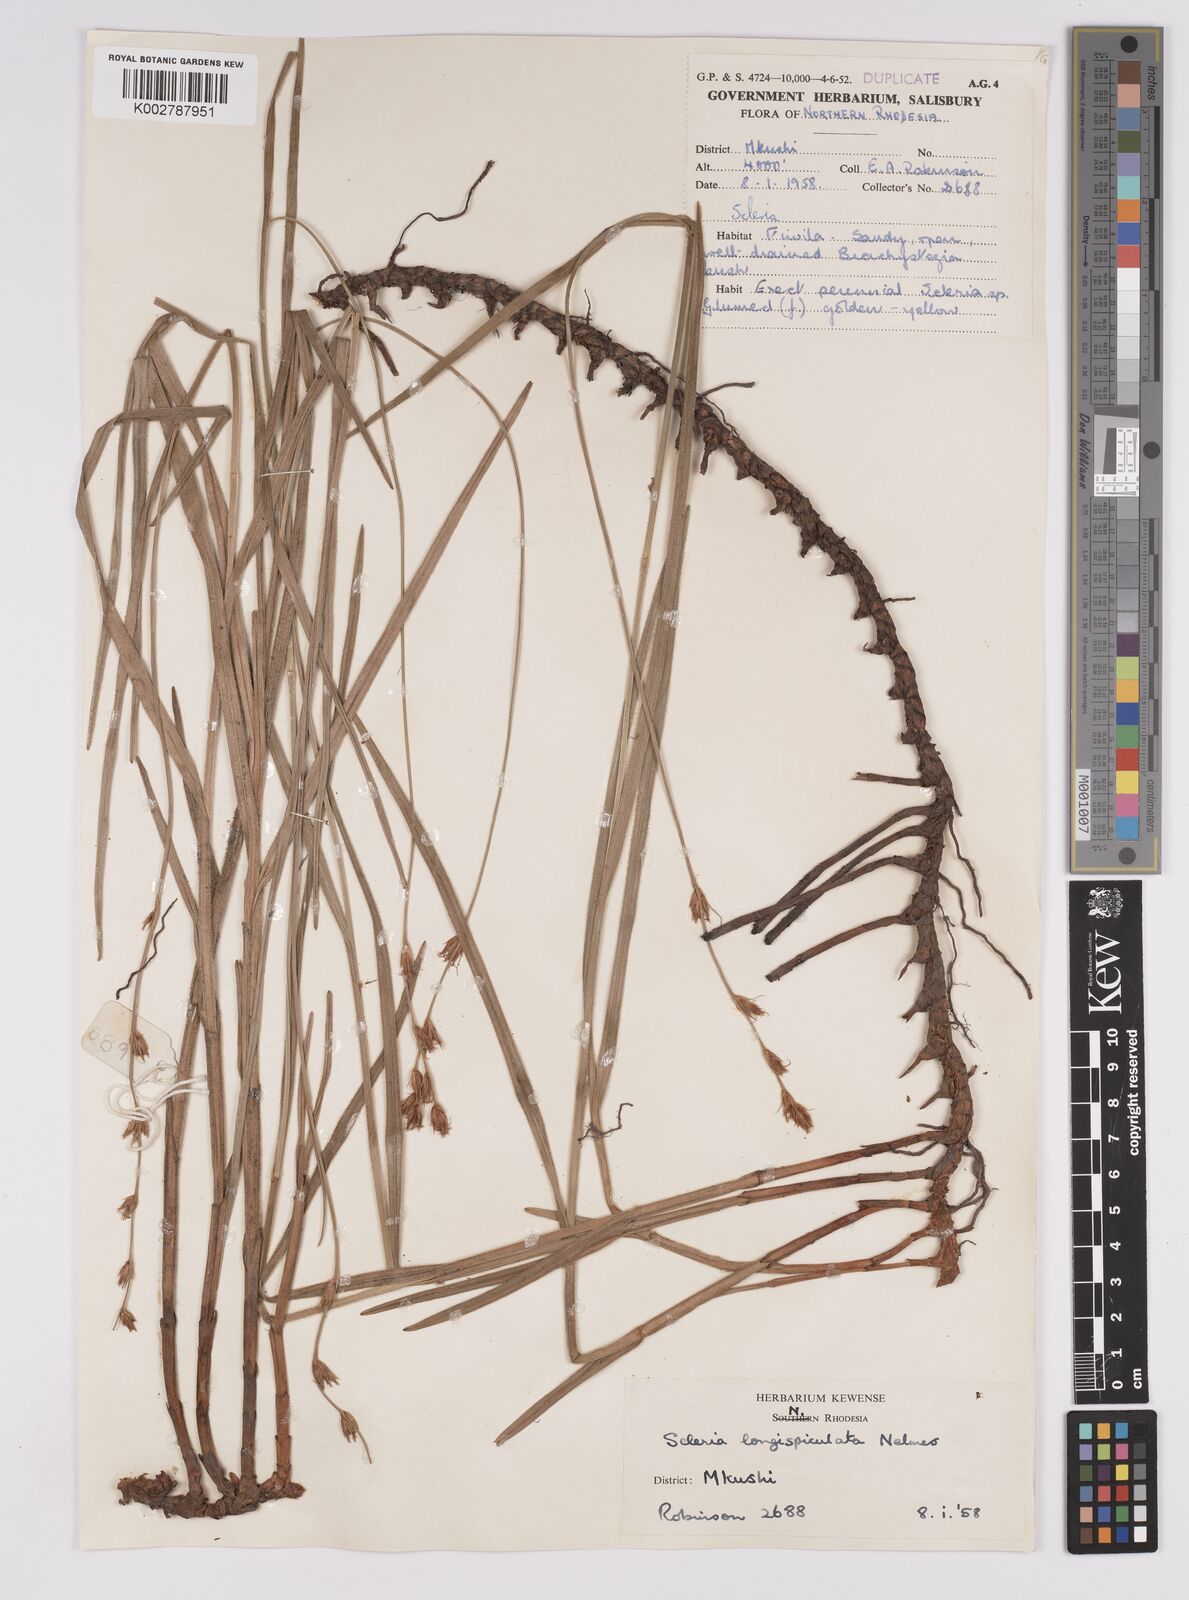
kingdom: Plantae
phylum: Tracheophyta
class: Liliopsida
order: Poales
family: Cyperaceae
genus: Scleria
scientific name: Scleria longispiculata
